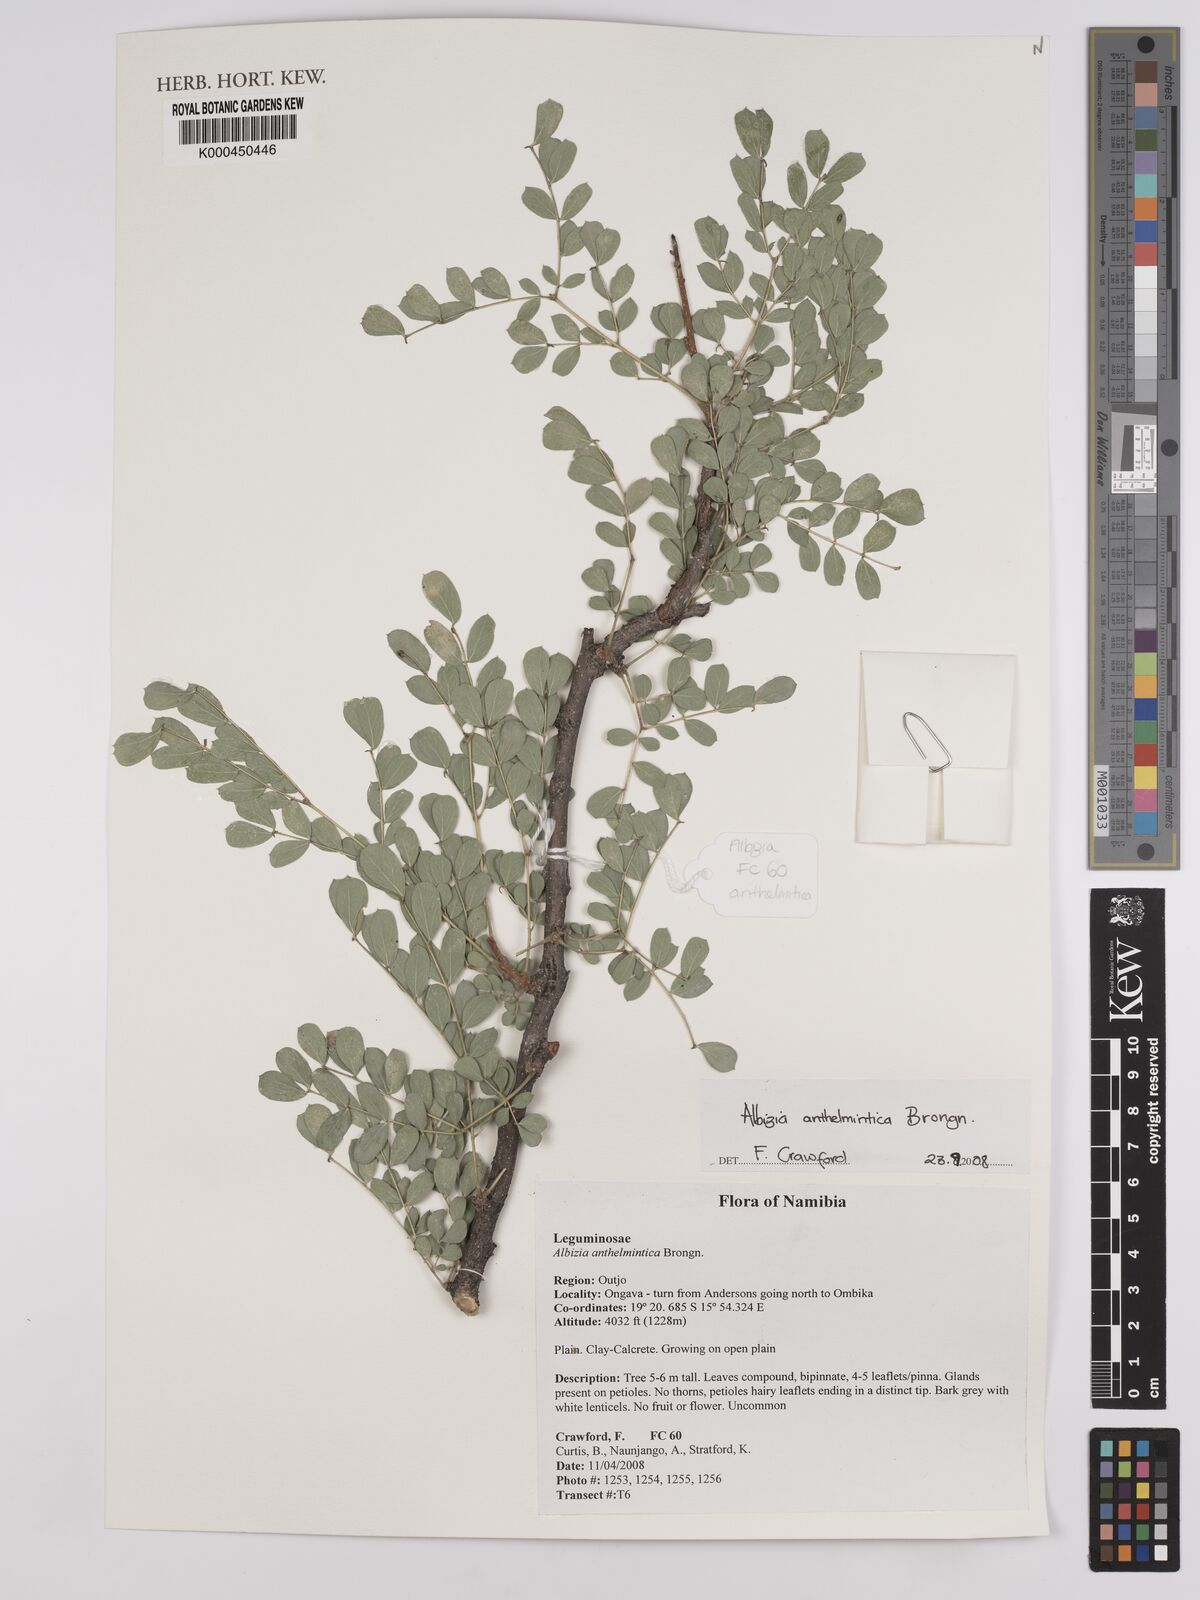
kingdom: Plantae
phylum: Tracheophyta
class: Magnoliopsida
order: Fabales
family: Fabaceae
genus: Albizia
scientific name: Albizia anthelmintica
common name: Worm-bark false-thorn
